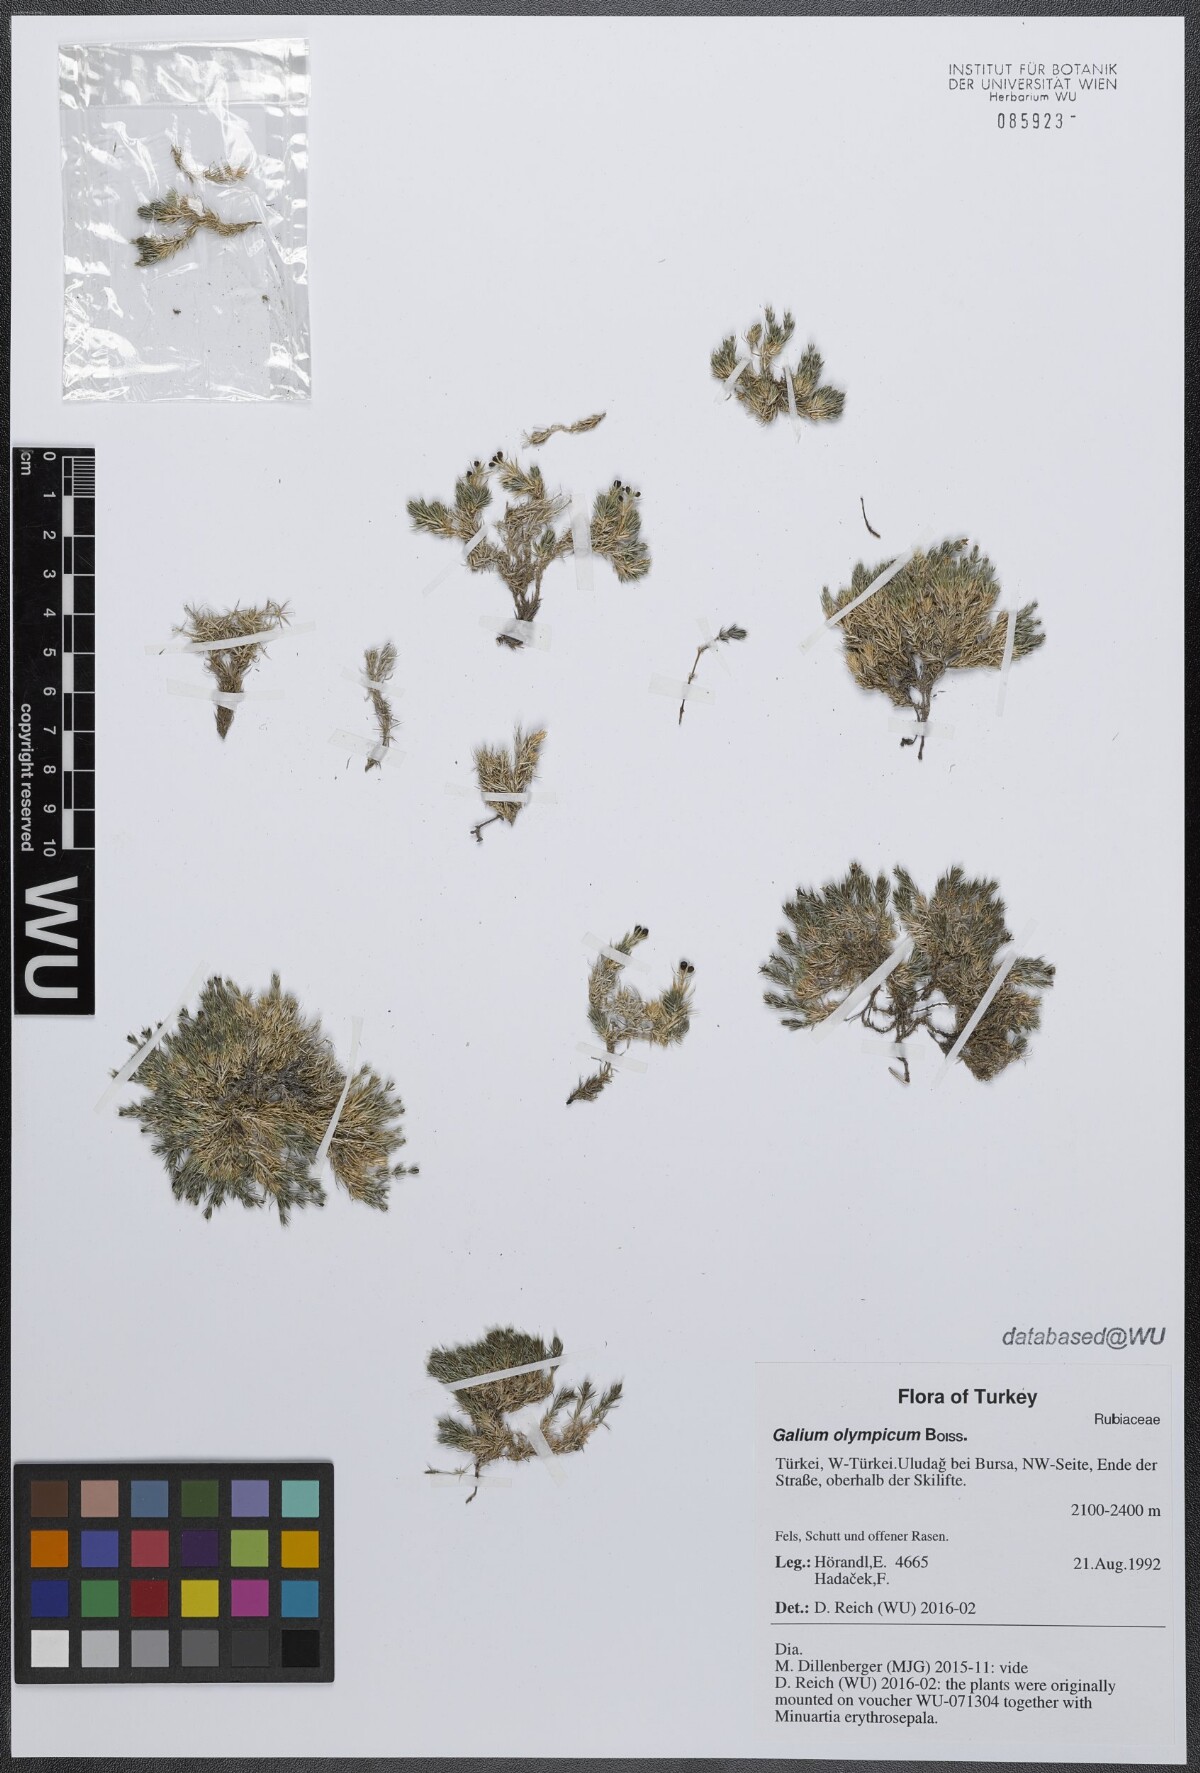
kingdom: Plantae
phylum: Tracheophyta
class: Magnoliopsida
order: Gentianales
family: Rubiaceae
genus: Galium
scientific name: Galium olympicum
